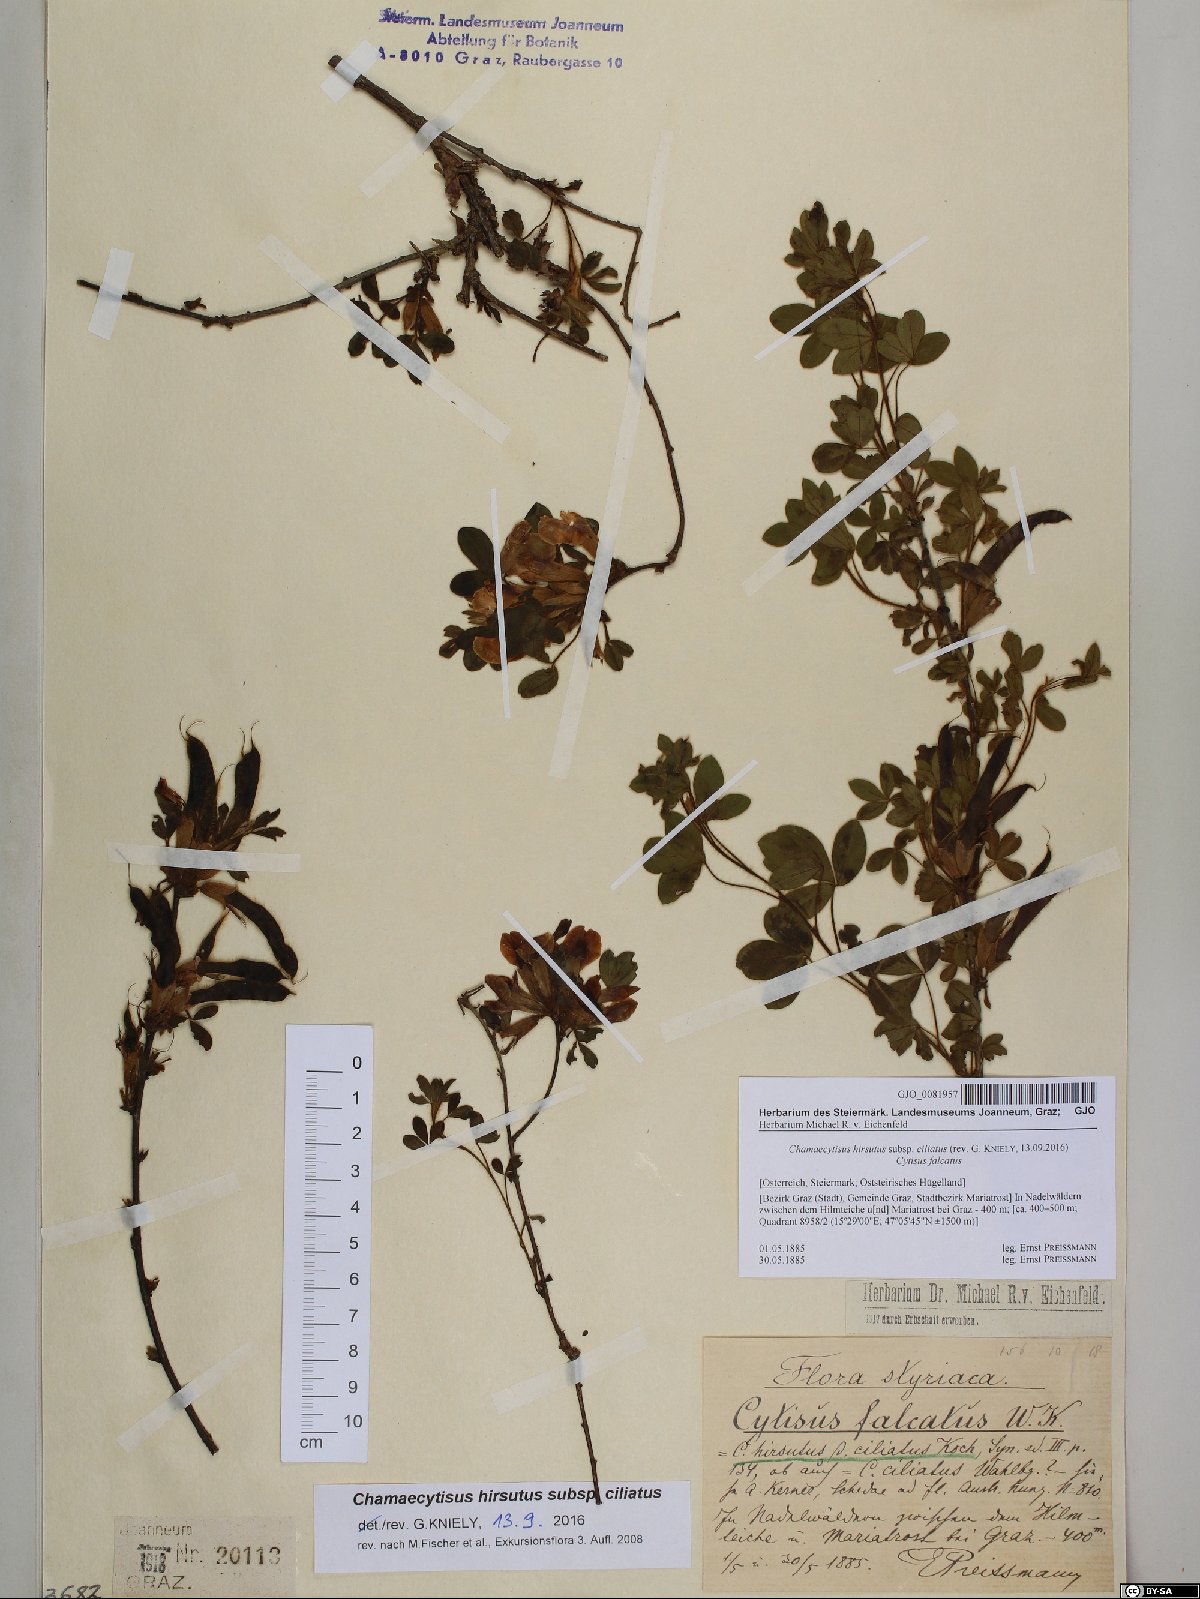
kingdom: Plantae
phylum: Tracheophyta
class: Magnoliopsida
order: Fabales
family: Fabaceae
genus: Chamaecytisus
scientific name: Chamaecytisus hirsutus
